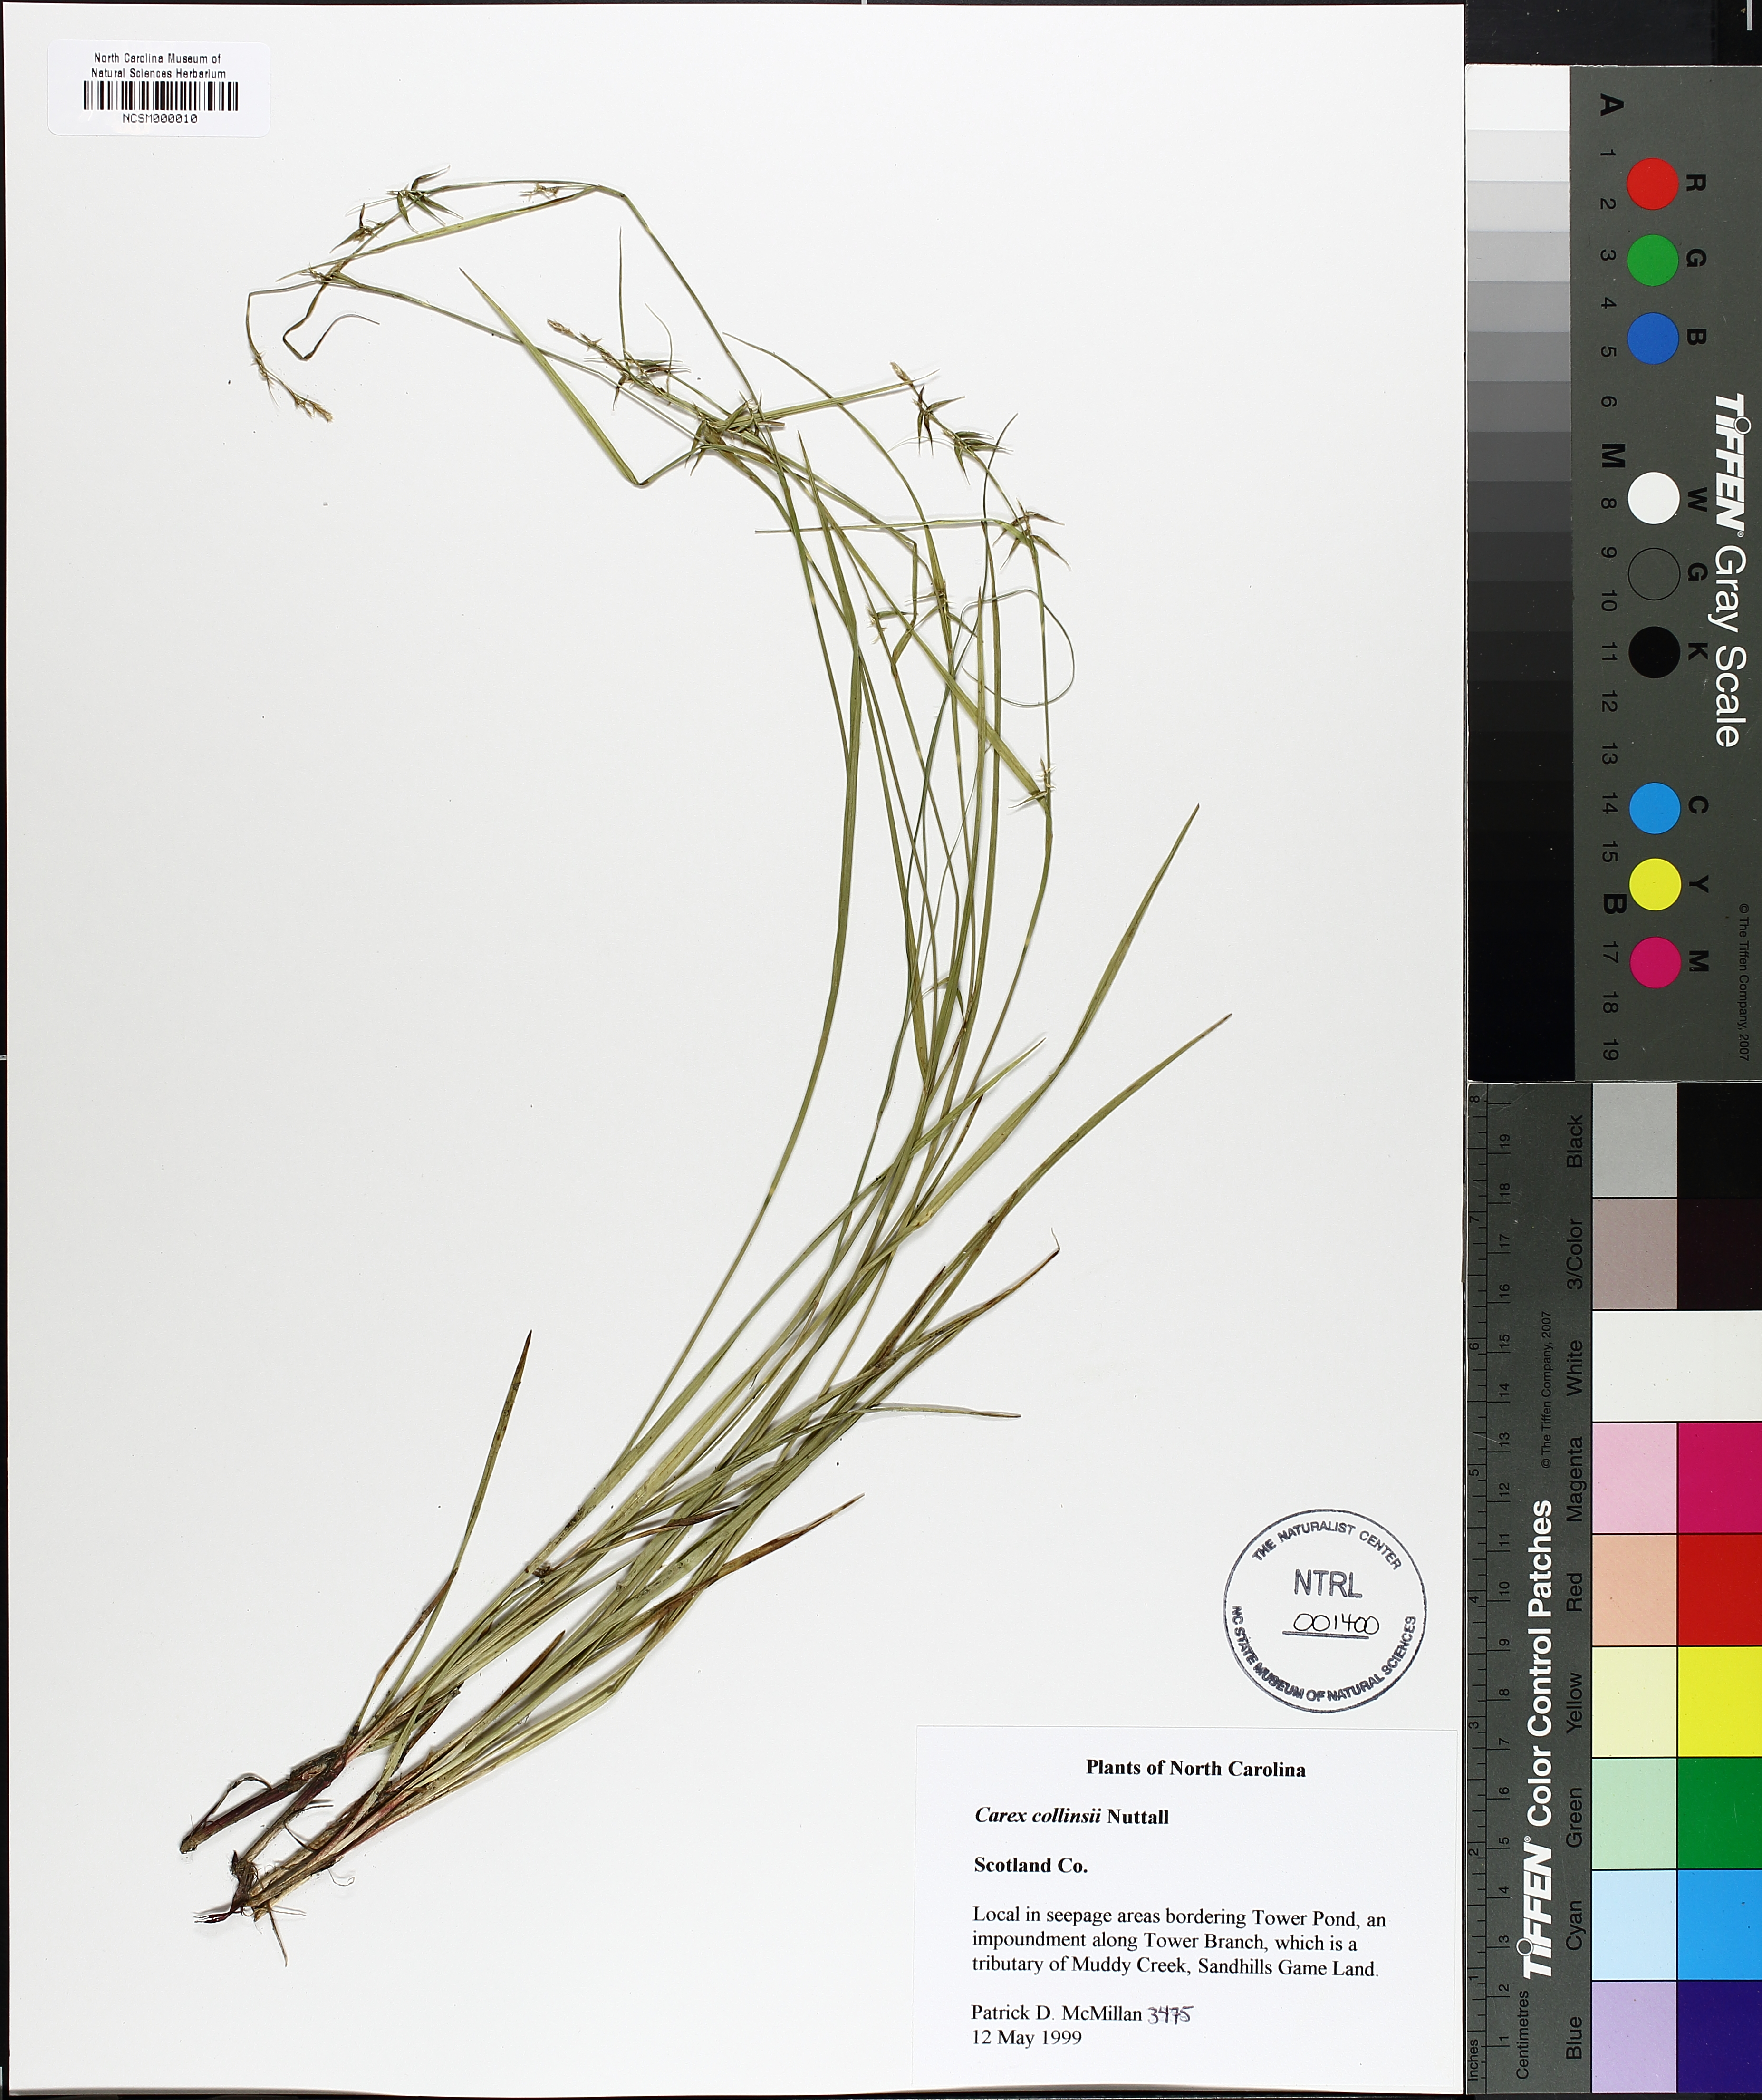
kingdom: Plantae
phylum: Tracheophyta
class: Liliopsida
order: Poales
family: Cyperaceae
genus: Carex
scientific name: Carex collinsii
